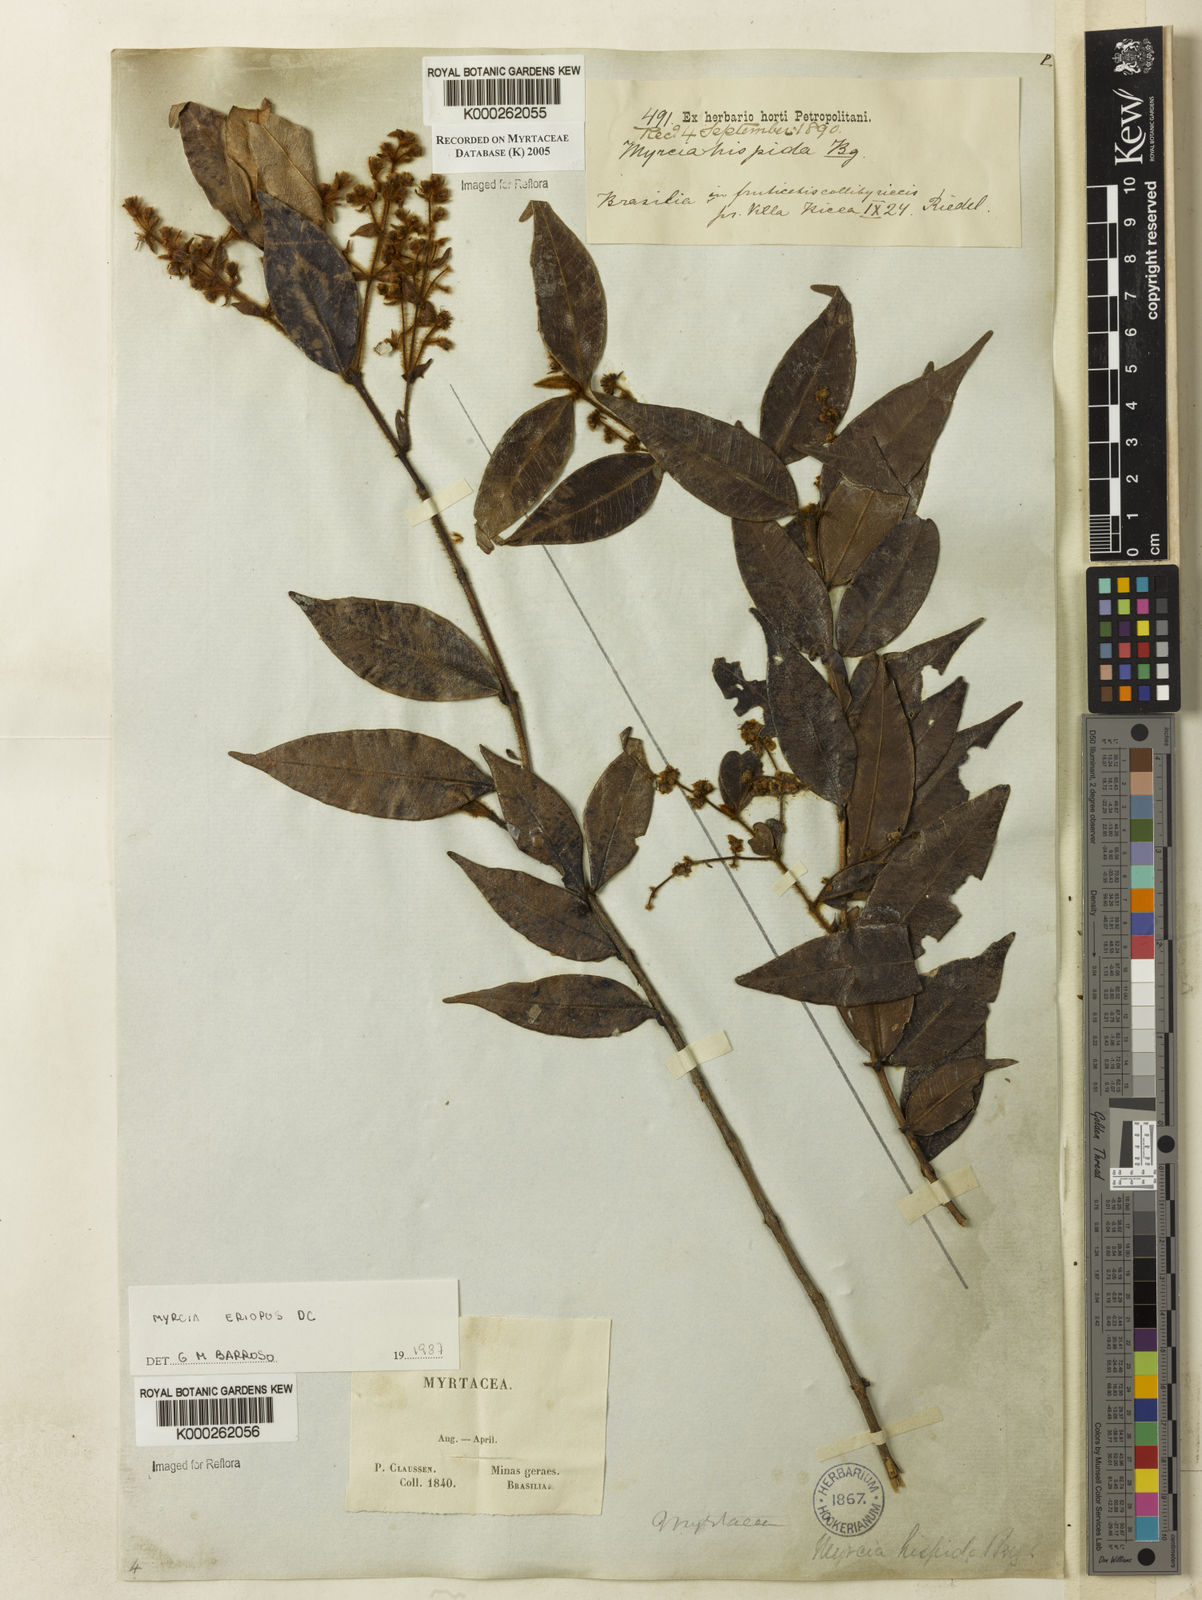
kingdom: Plantae
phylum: Tracheophyta
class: Magnoliopsida
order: Myrtales
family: Myrtaceae
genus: Myrcia
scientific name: Myrcia eriopus
